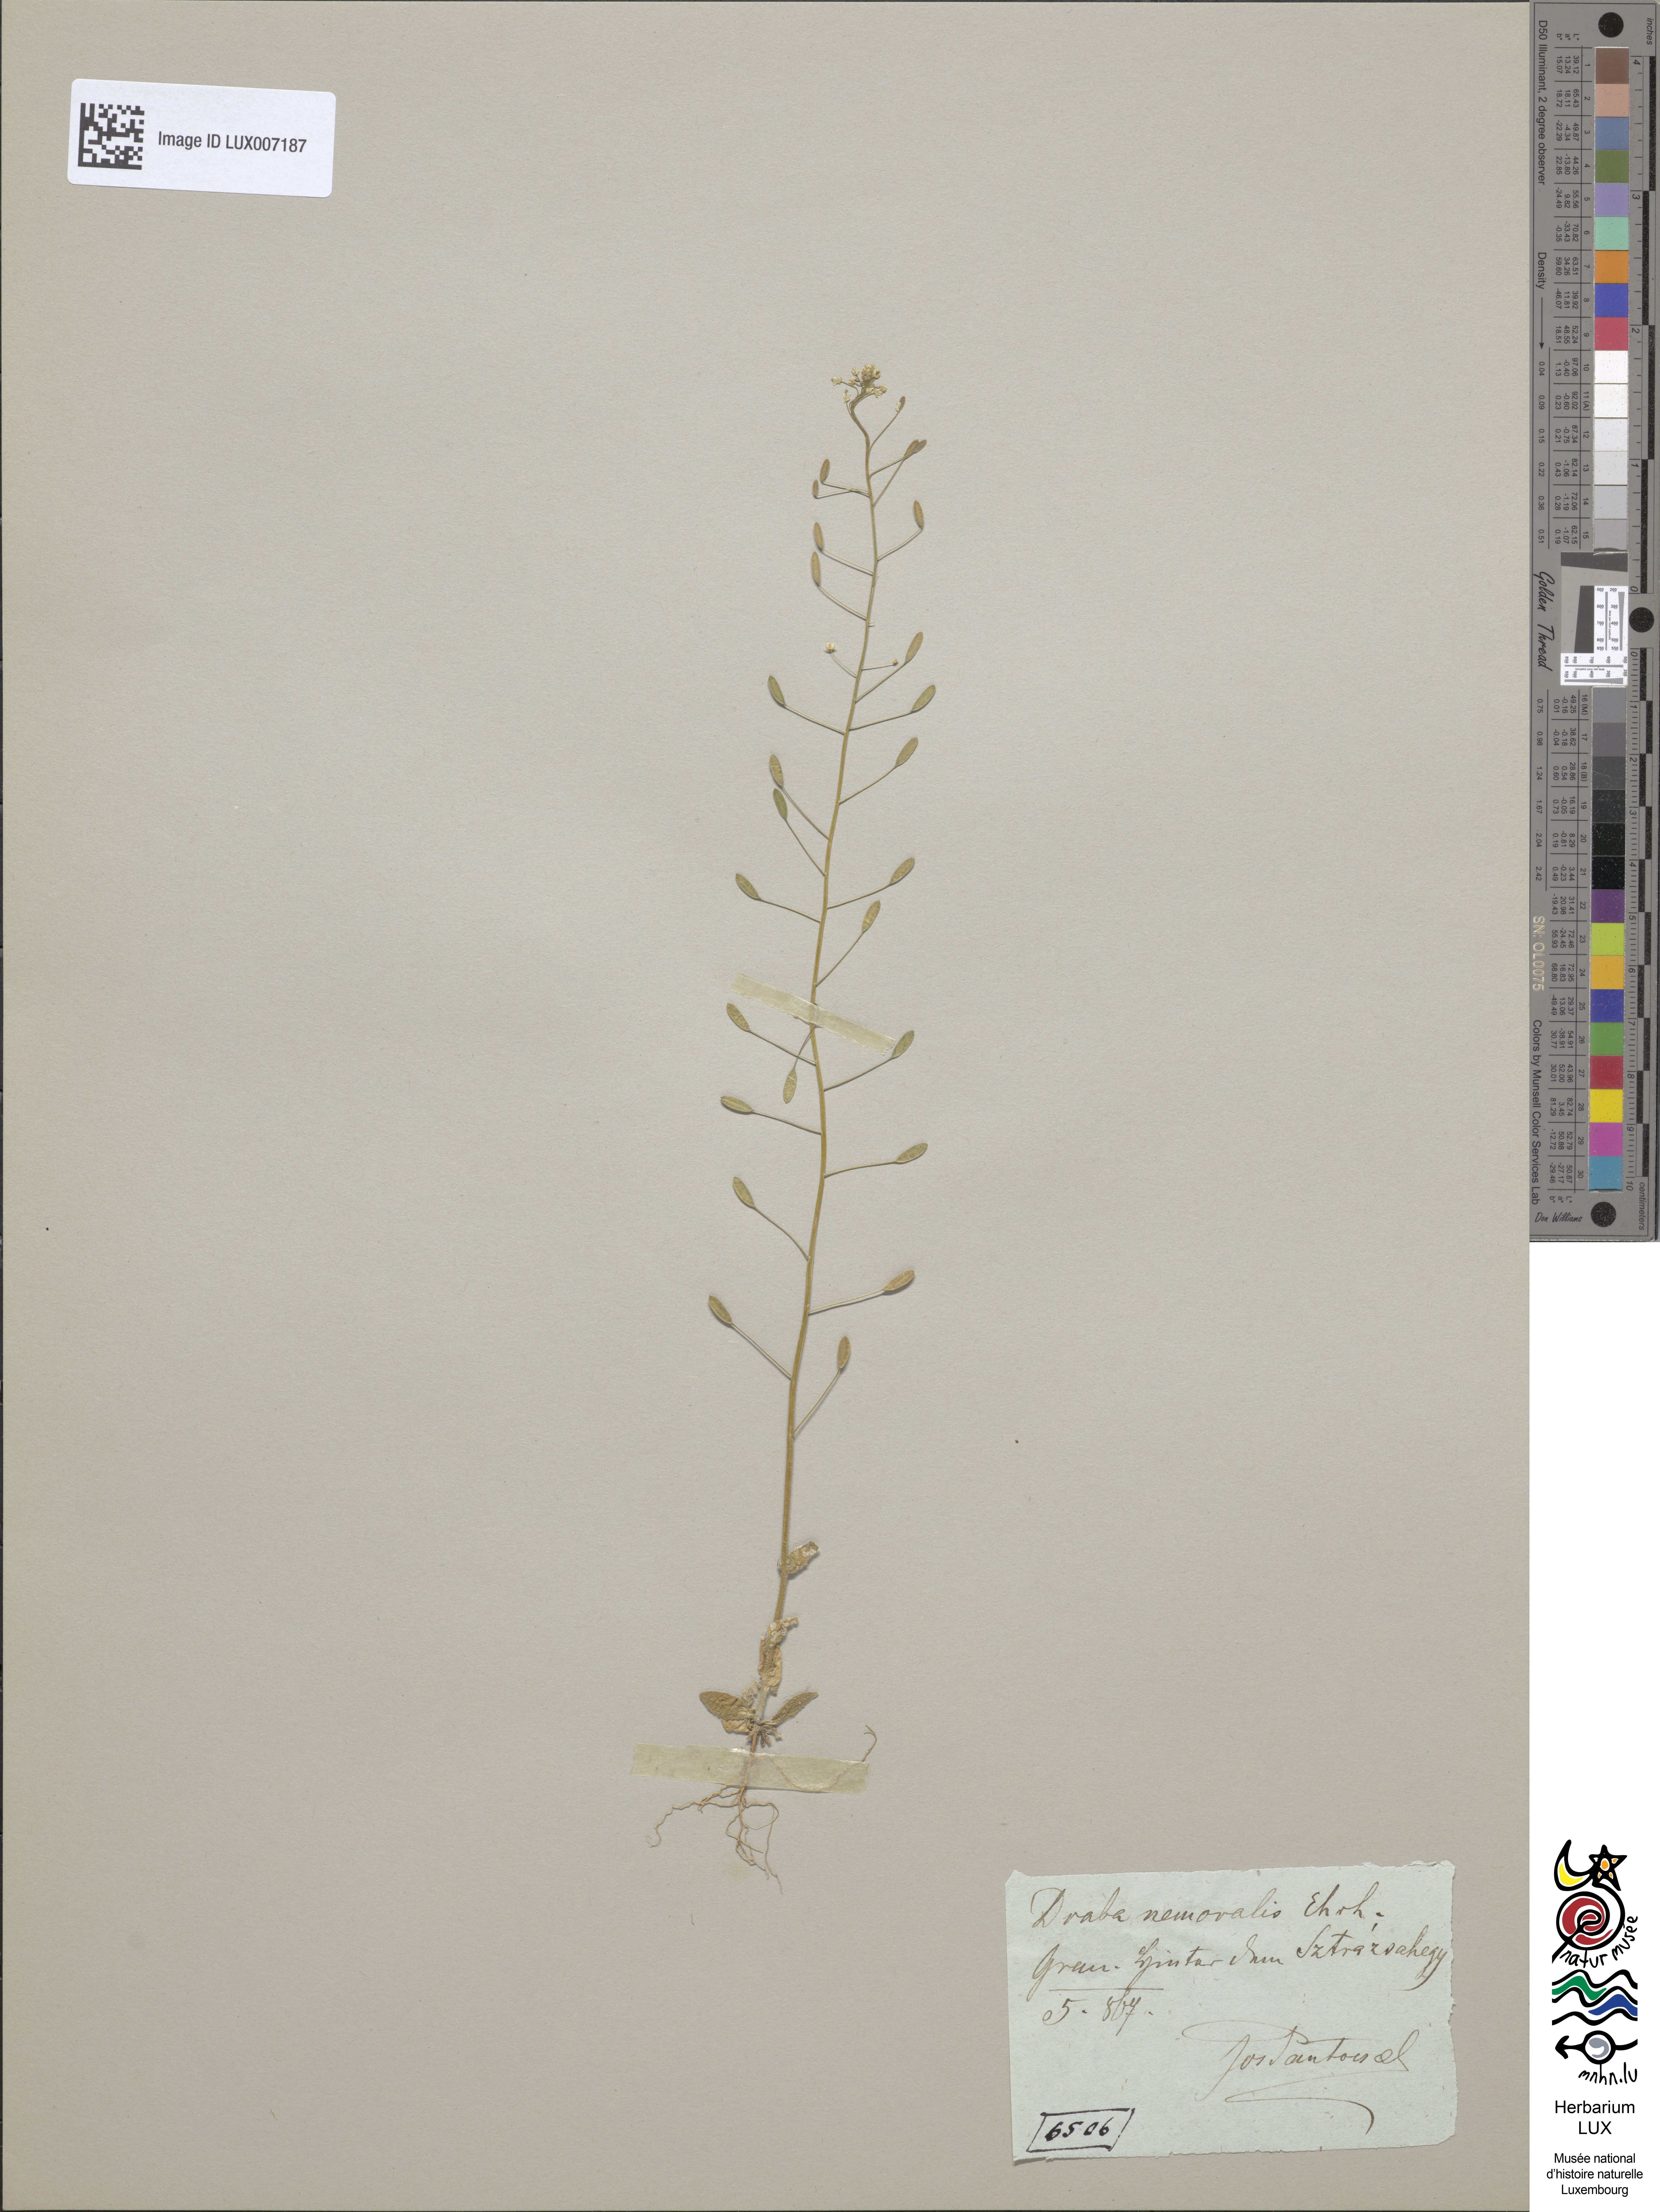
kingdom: Plantae
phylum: Tracheophyta
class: Magnoliopsida
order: Brassicales
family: Brassicaceae
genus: Draba
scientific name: Draba nemorosa
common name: Wood whitlow-grass
